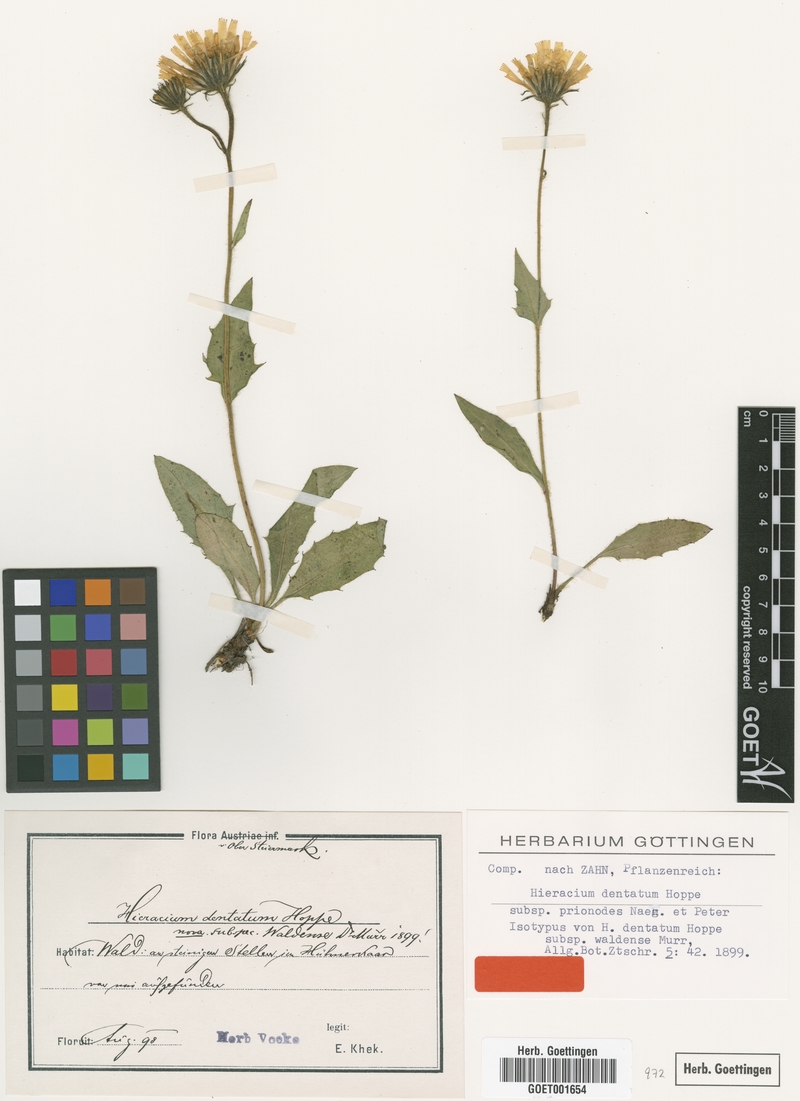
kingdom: Plantae
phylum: Tracheophyta
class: Magnoliopsida
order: Asterales
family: Asteraceae
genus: Hieracium
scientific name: Hieracium dentatum
